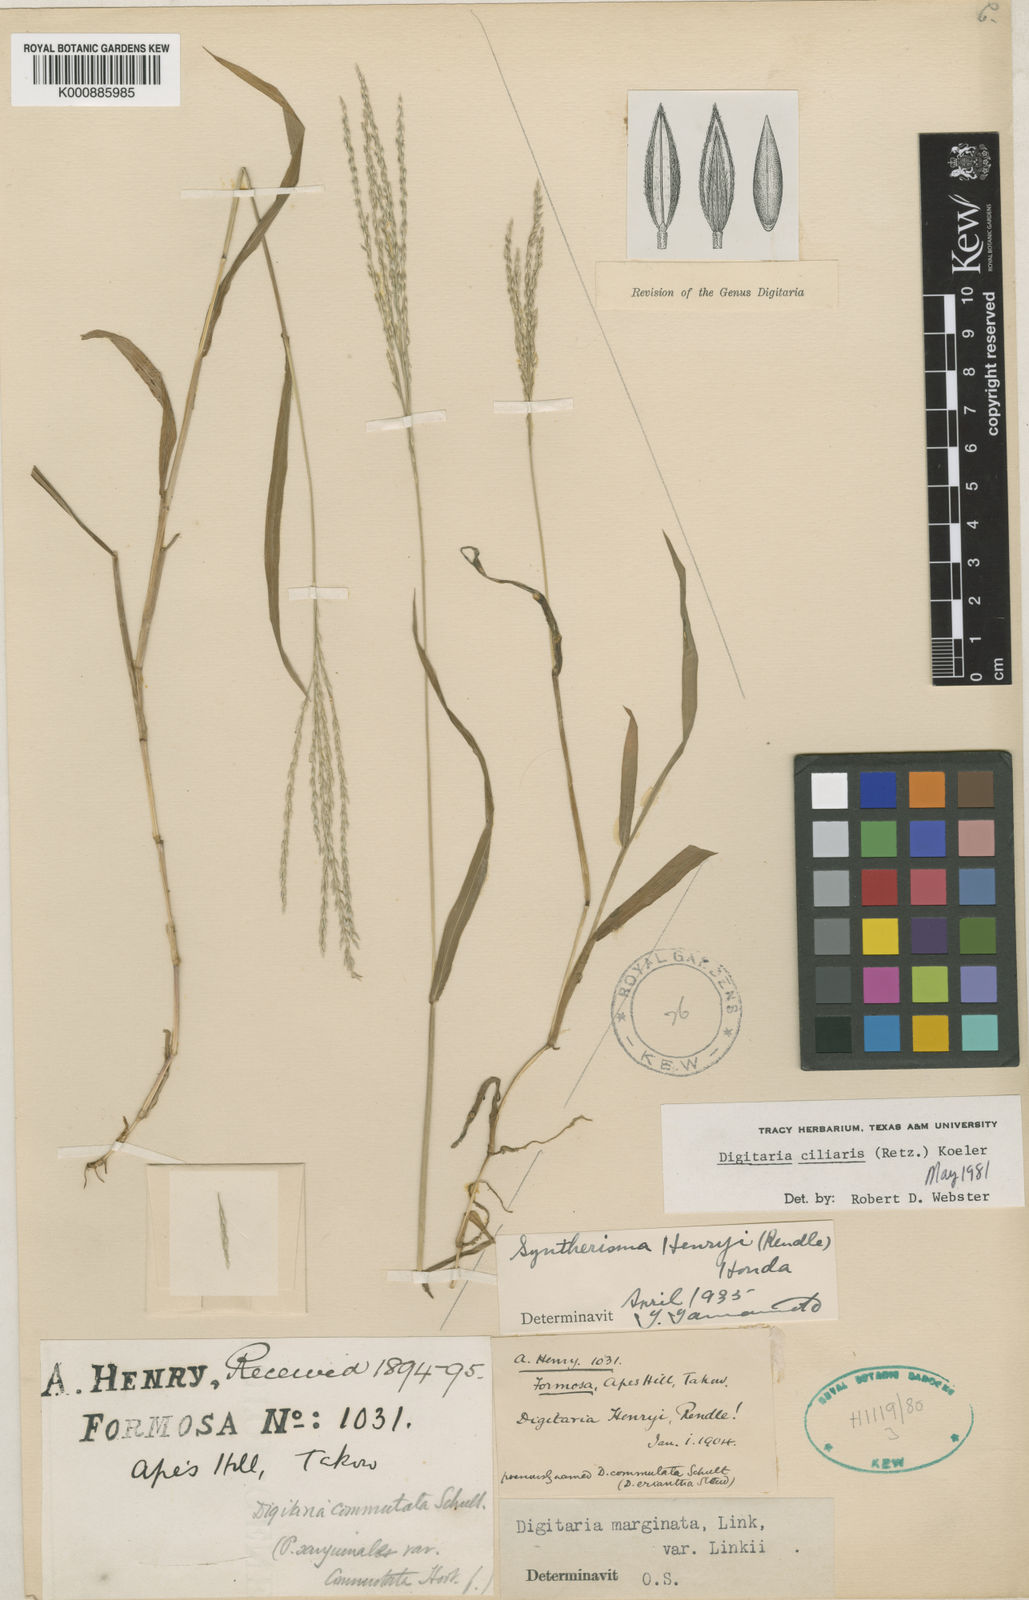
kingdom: Plantae
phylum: Tracheophyta
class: Liliopsida
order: Poales
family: Poaceae
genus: Digitaria
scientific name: Digitaria ciliaris
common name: Tropical finger-grass
